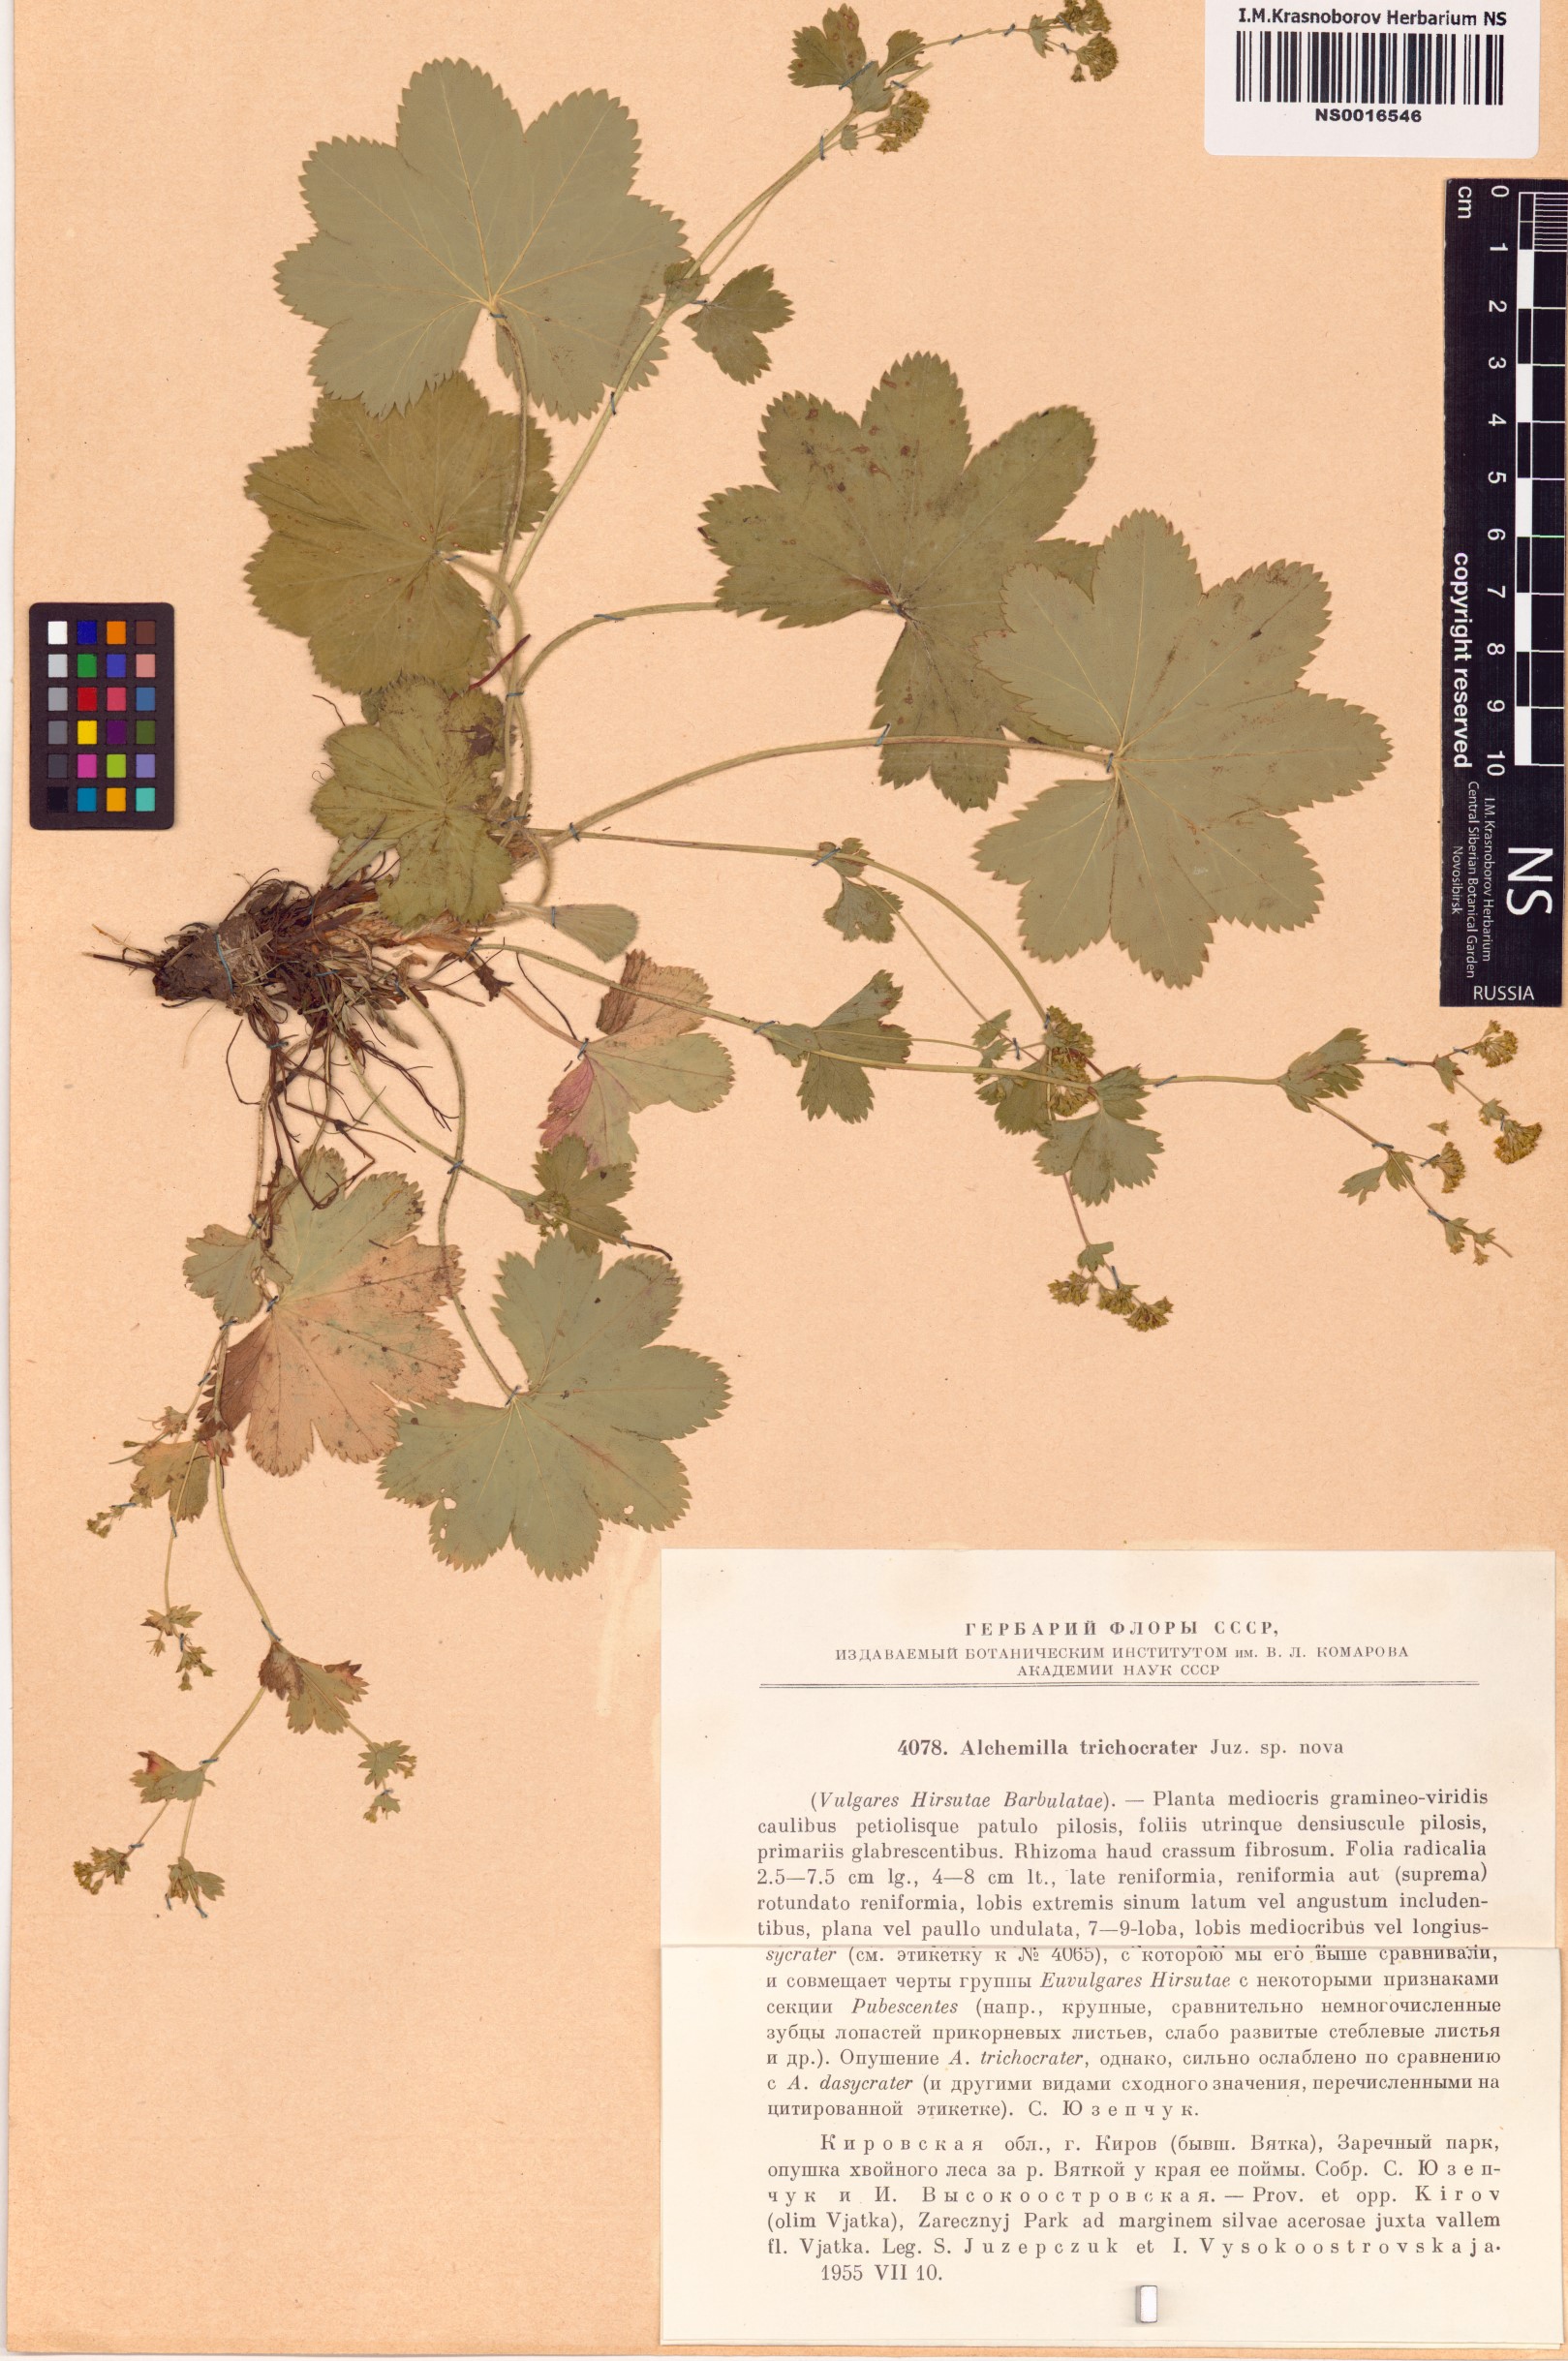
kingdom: Plantae
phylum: Tracheophyta
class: Magnoliopsida
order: Rosales
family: Rosaceae
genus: Alchemilla
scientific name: Alchemilla trichocrater
